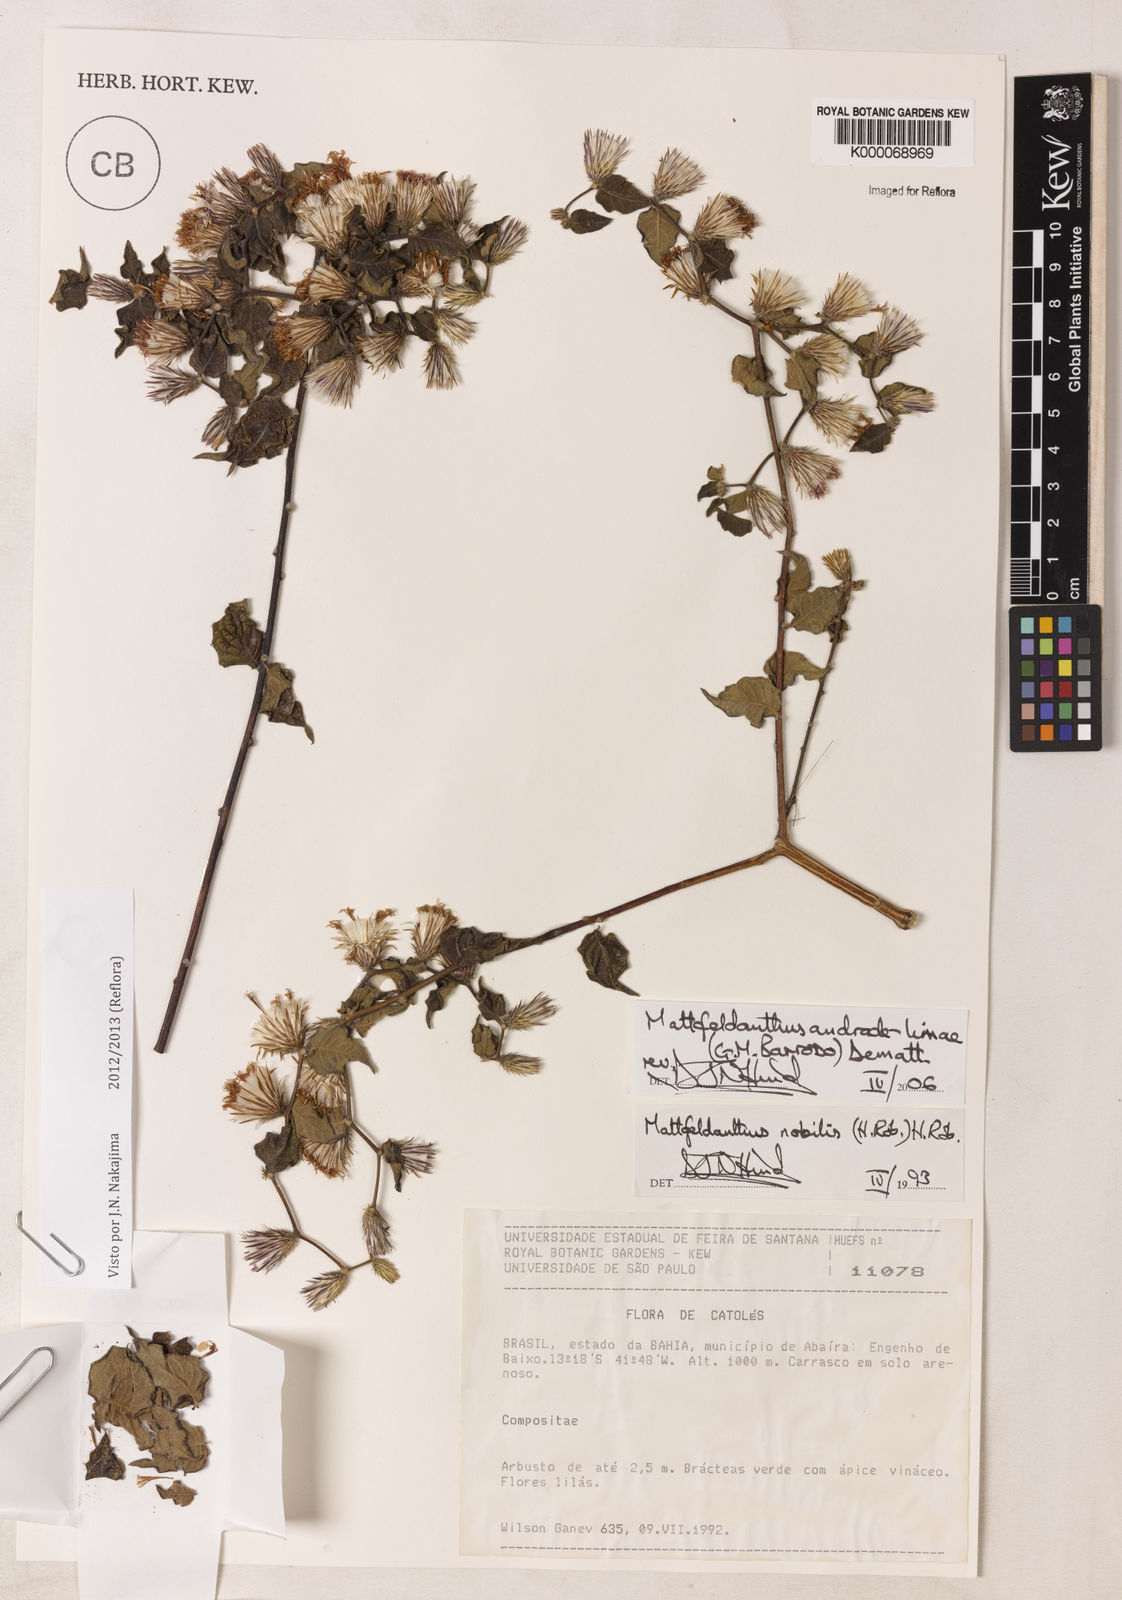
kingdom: Plantae
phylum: Tracheophyta
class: Magnoliopsida
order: Asterales
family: Asteraceae
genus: Mattfeldanthus
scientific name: Mattfeldanthus andrade-limae
